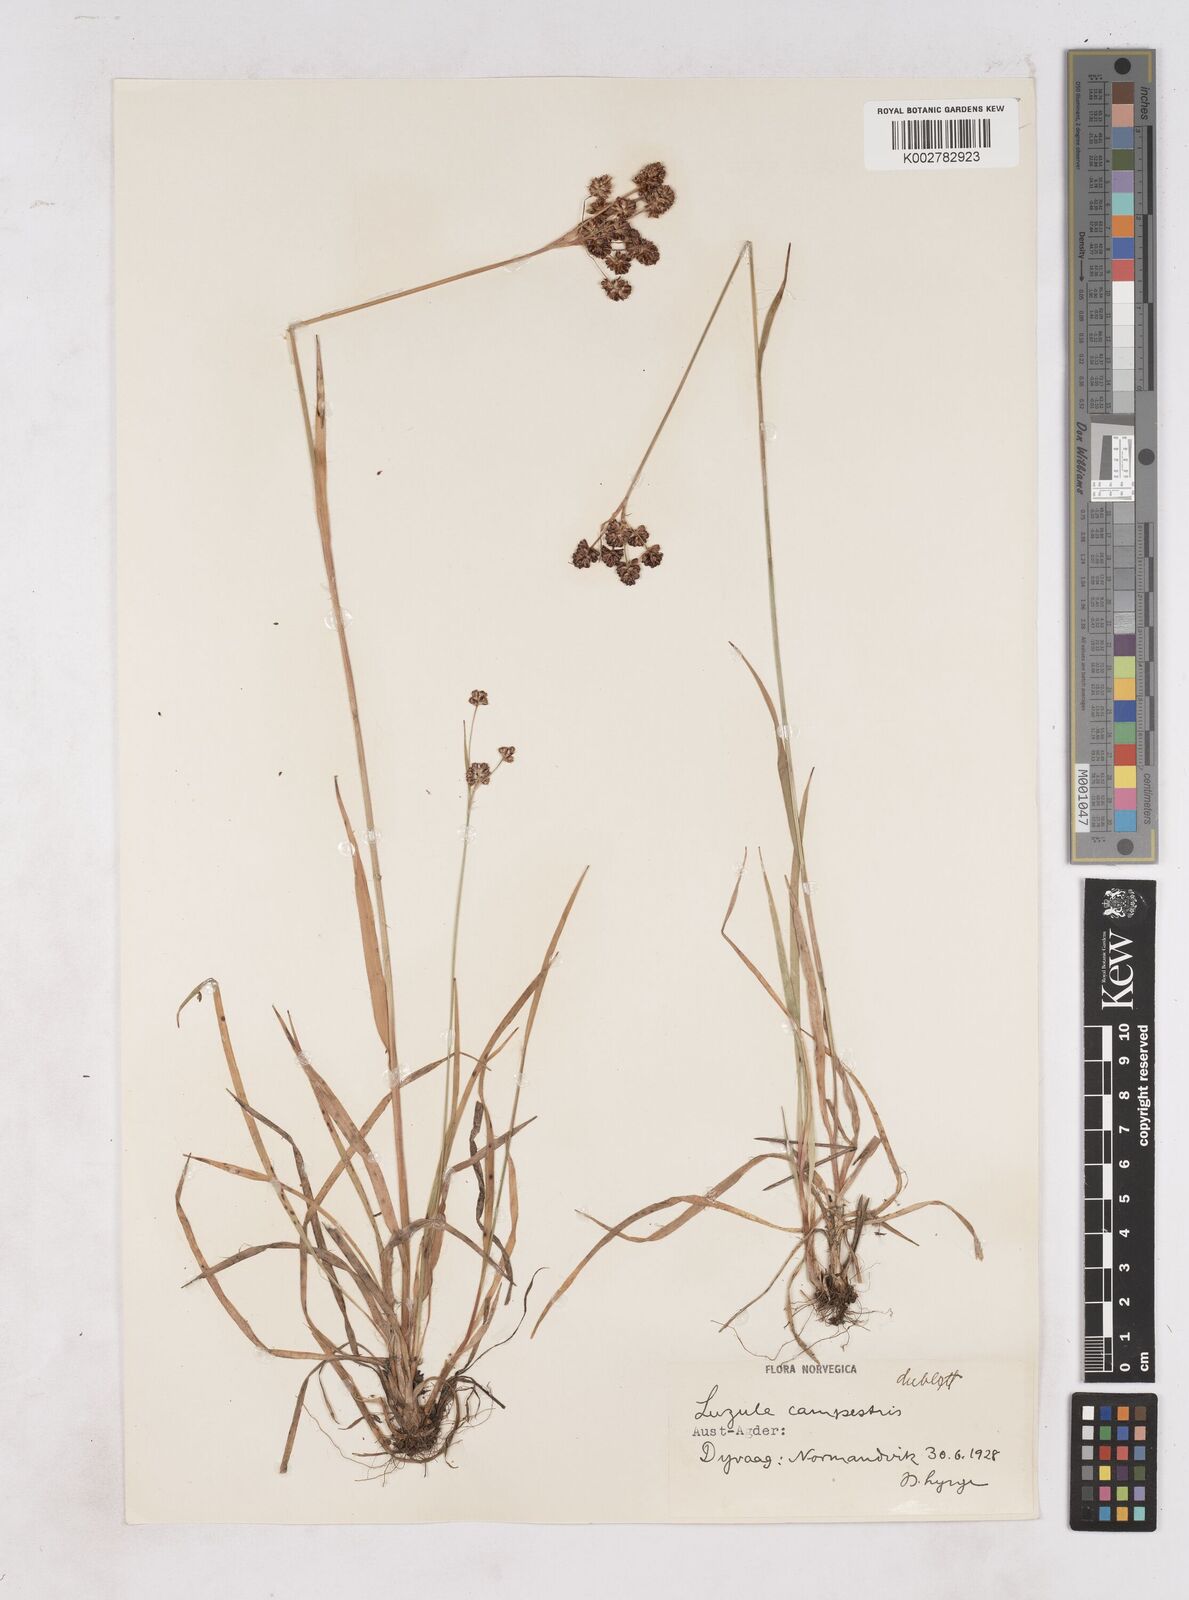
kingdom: Plantae
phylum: Tracheophyta
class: Liliopsida
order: Poales
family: Juncaceae
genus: Luzula
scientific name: Luzula campestris
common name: Field wood-rush
